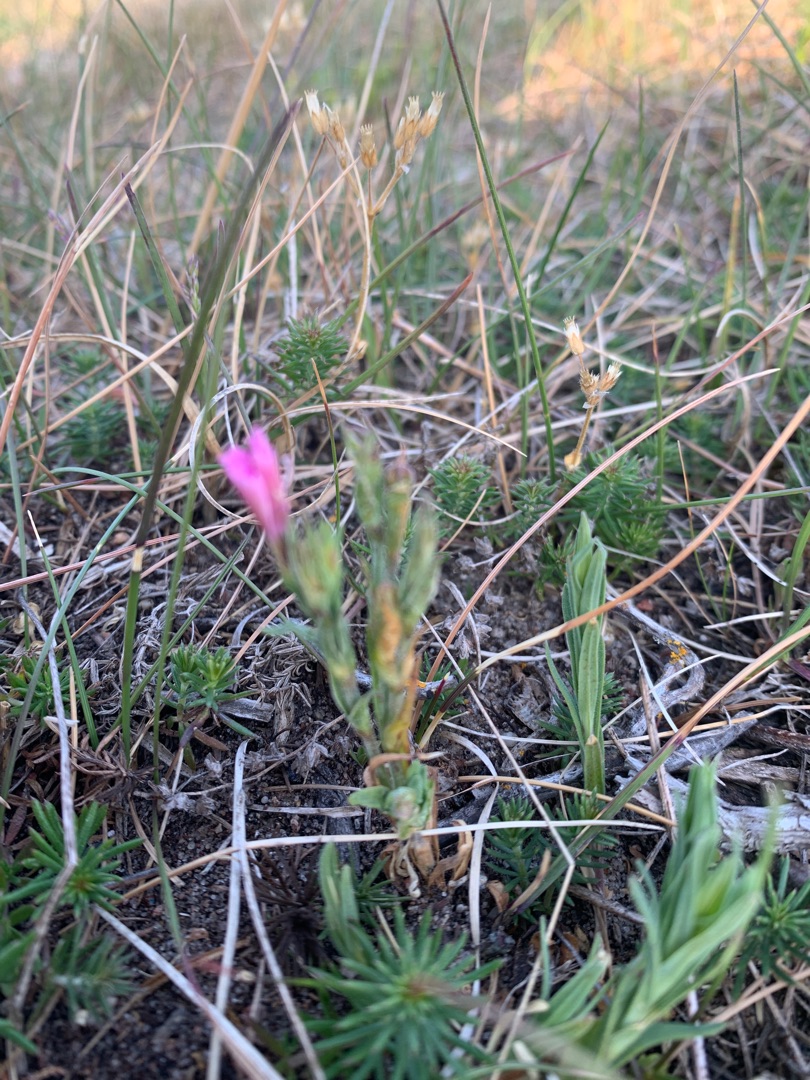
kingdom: Plantae
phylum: Tracheophyta
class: Magnoliopsida
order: Caryophyllales
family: Caryophyllaceae
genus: Dianthus
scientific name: Dianthus deltoides
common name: Bakke-nellike
